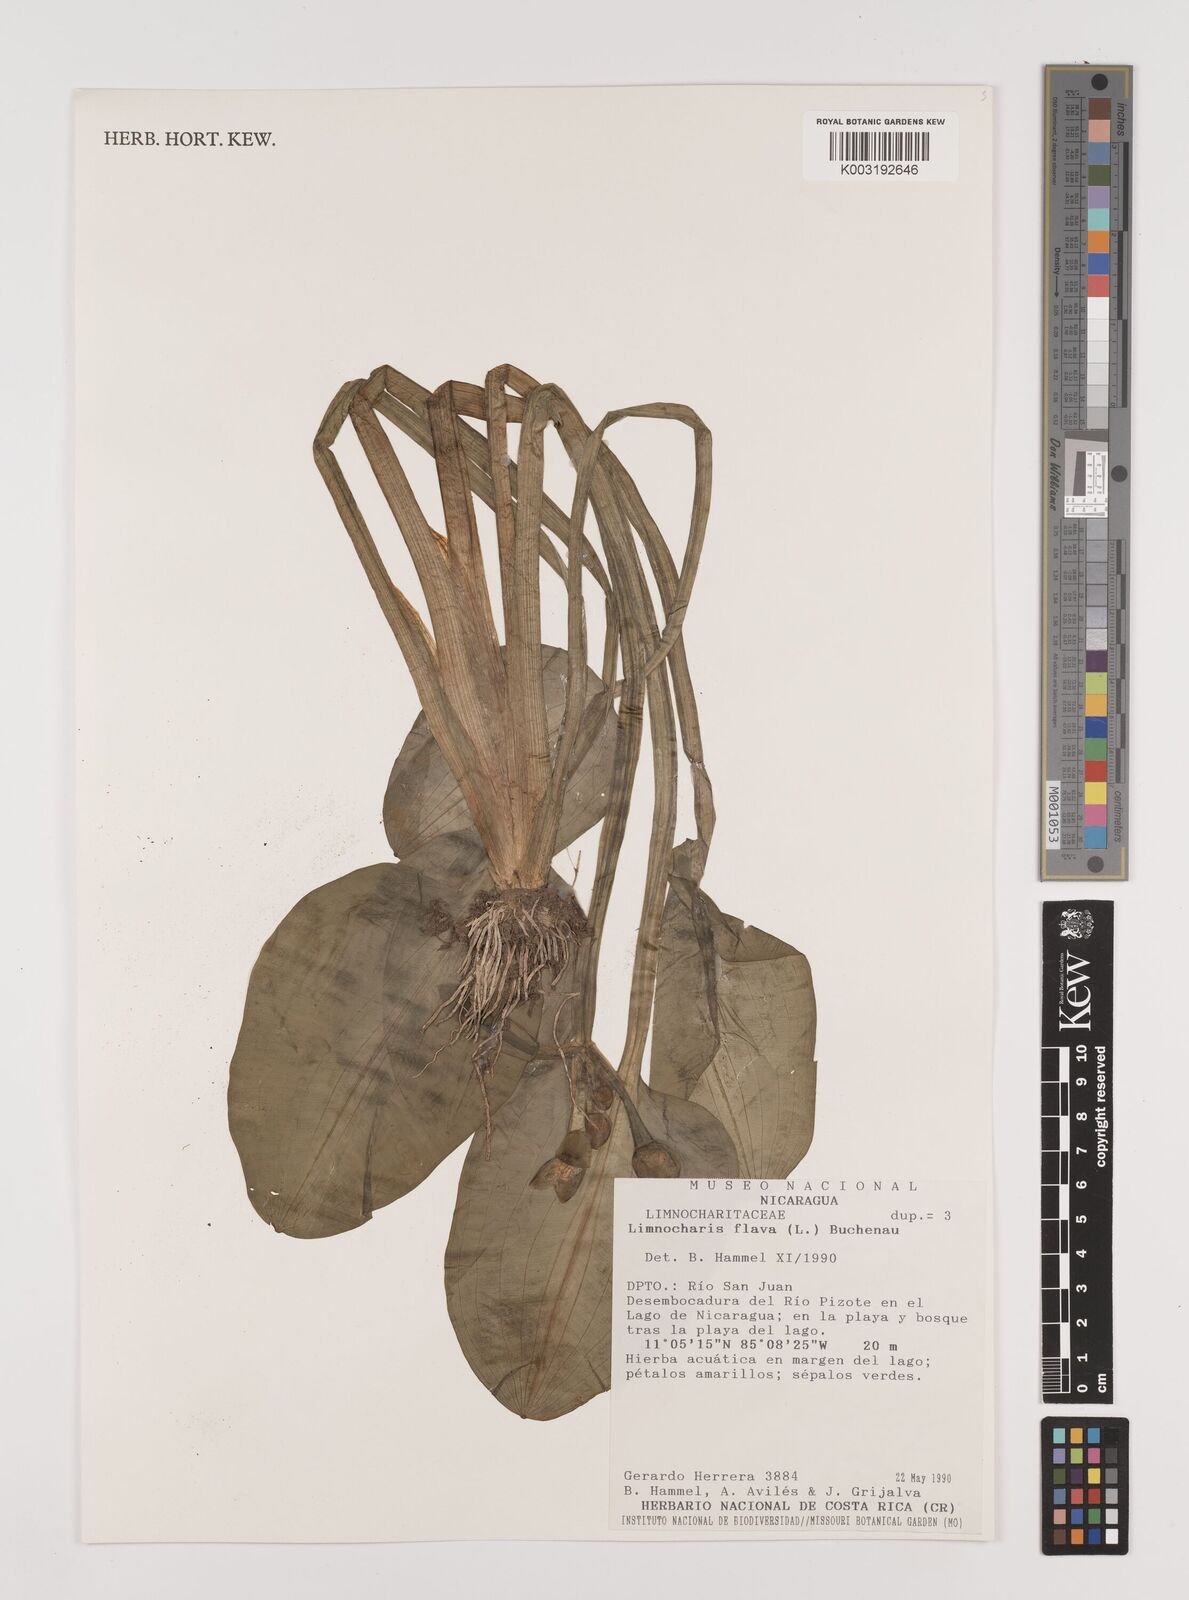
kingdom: Plantae
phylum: Tracheophyta
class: Liliopsida
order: Alismatales
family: Alismataceae
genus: Limnocharis
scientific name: Limnocharis flava
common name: Sawah-flower-rush
